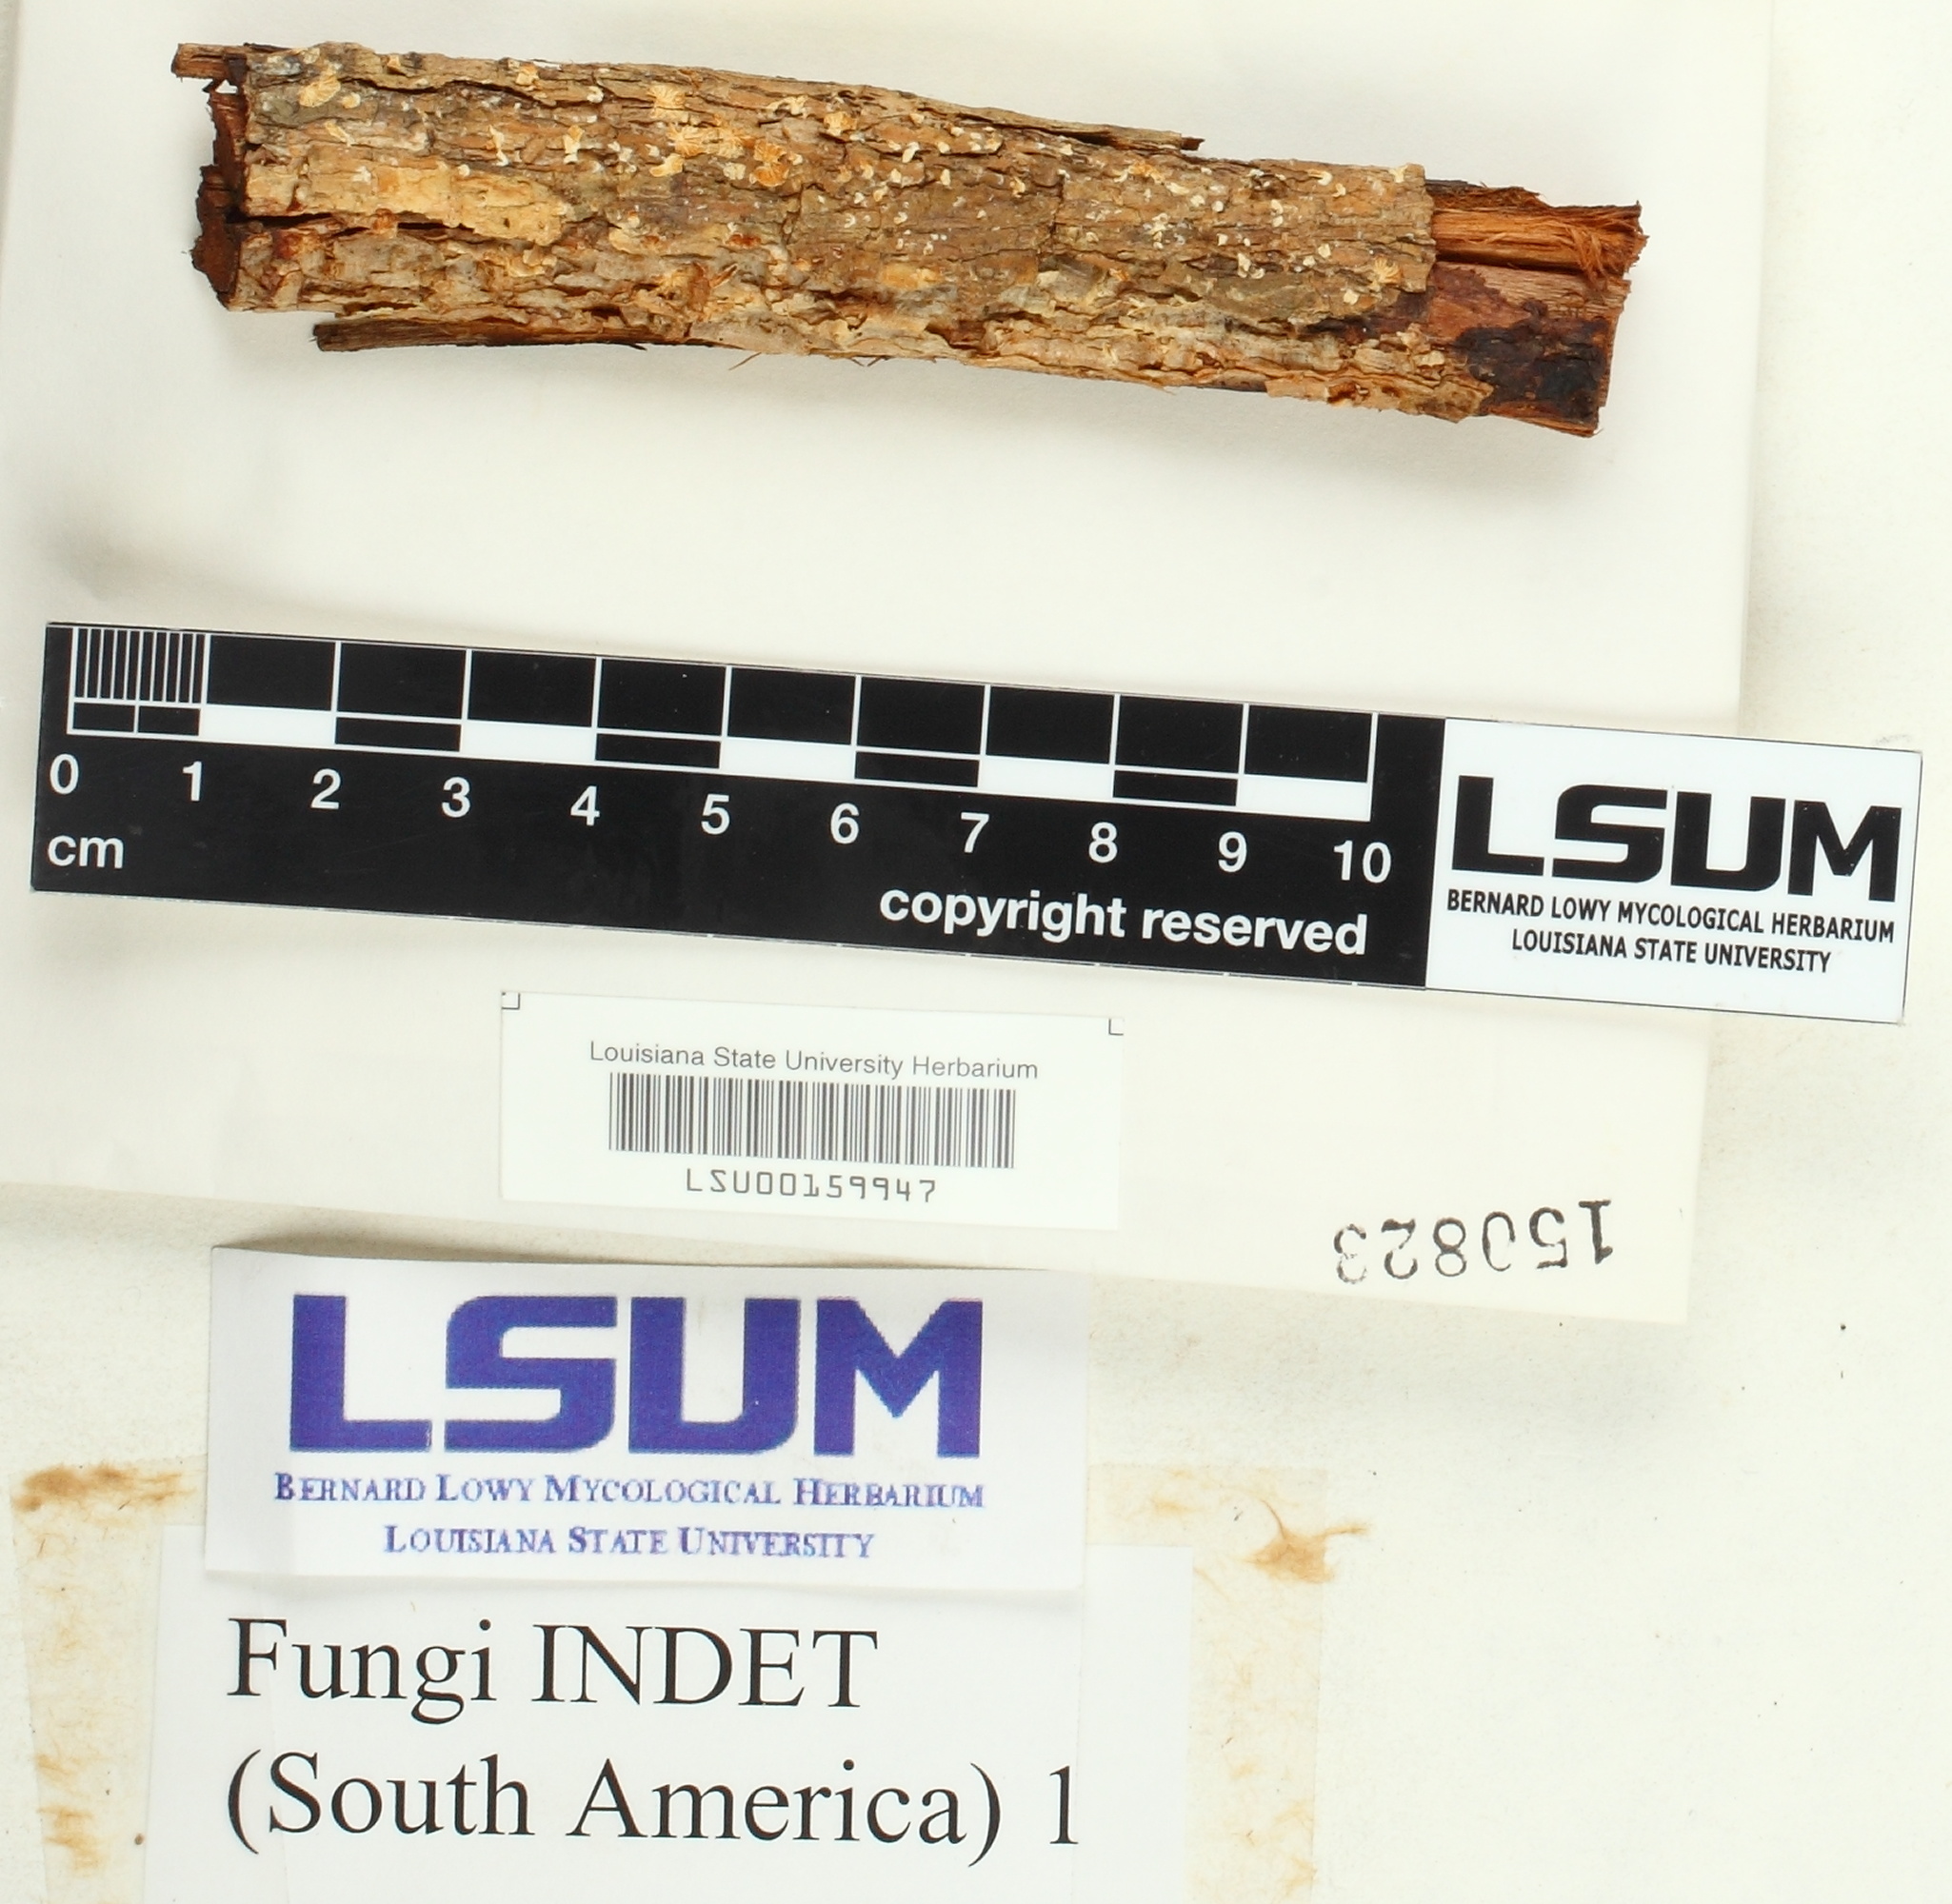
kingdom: Fungi
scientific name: Fungi
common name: Fungi
